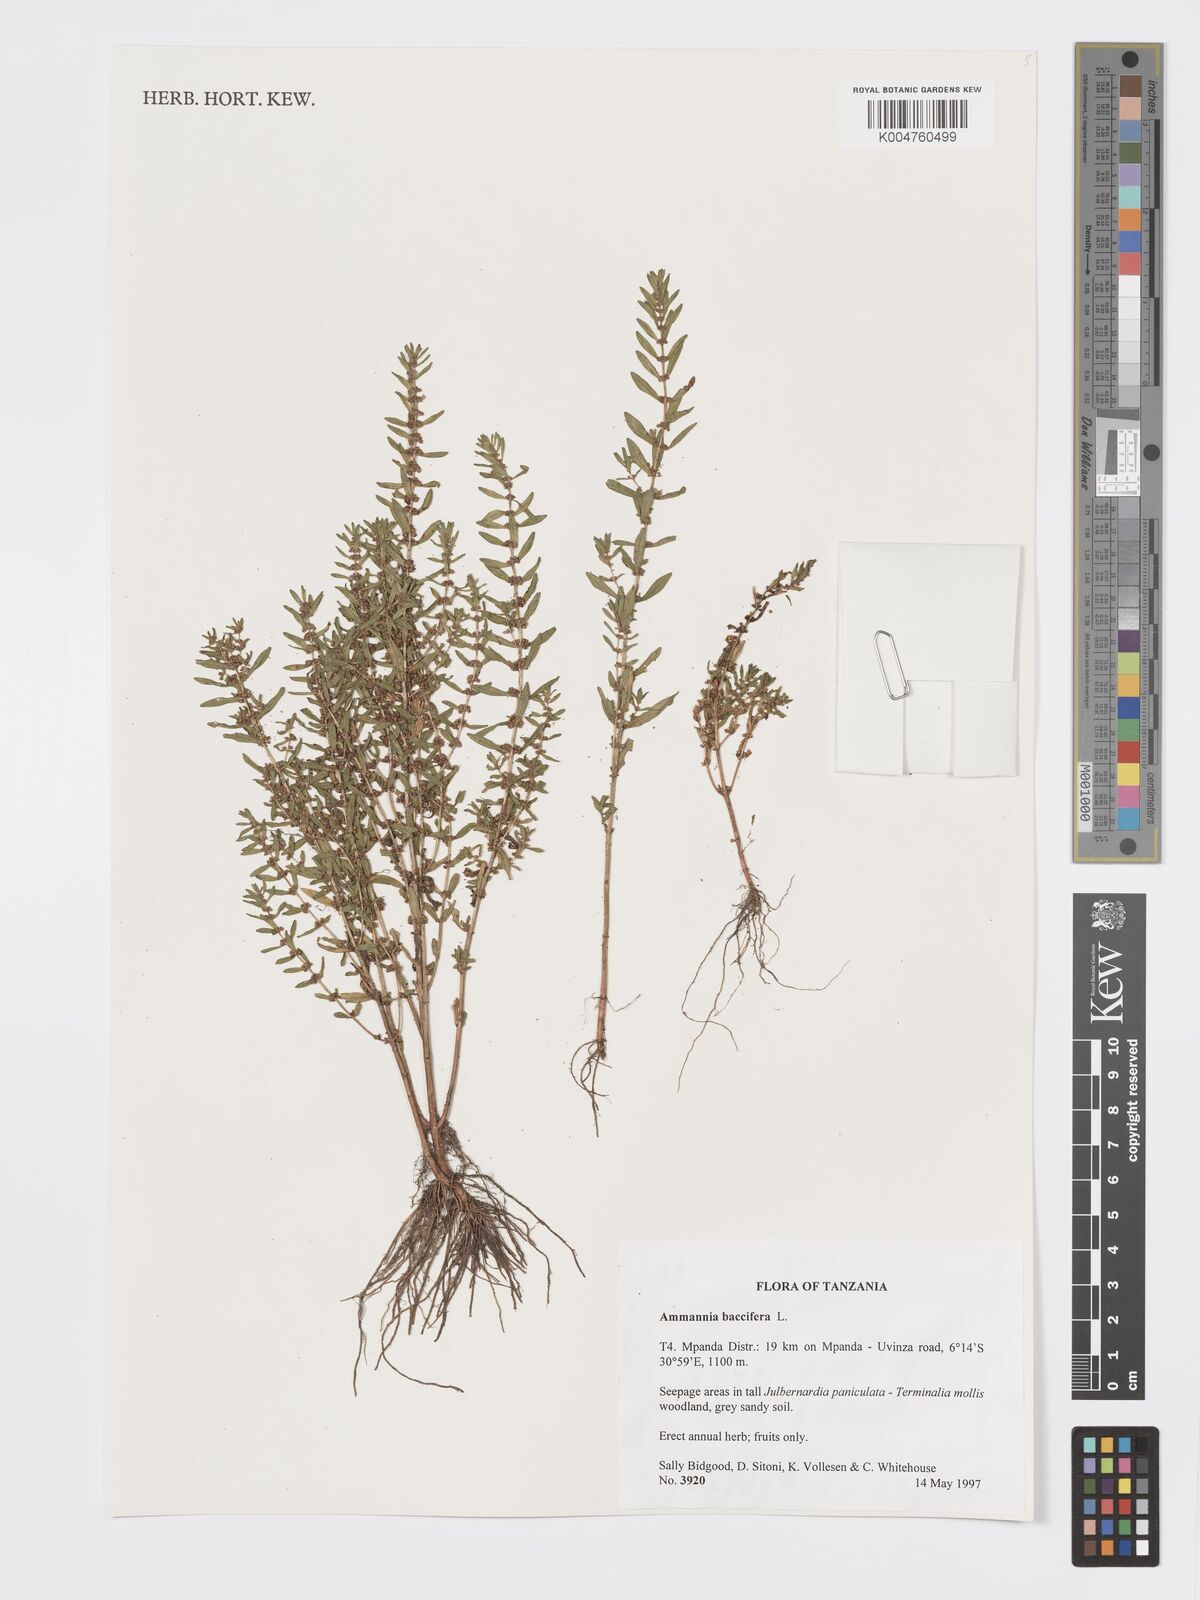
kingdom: Plantae
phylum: Tracheophyta
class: Magnoliopsida
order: Myrtales
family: Lythraceae
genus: Ammannia
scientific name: Ammannia
